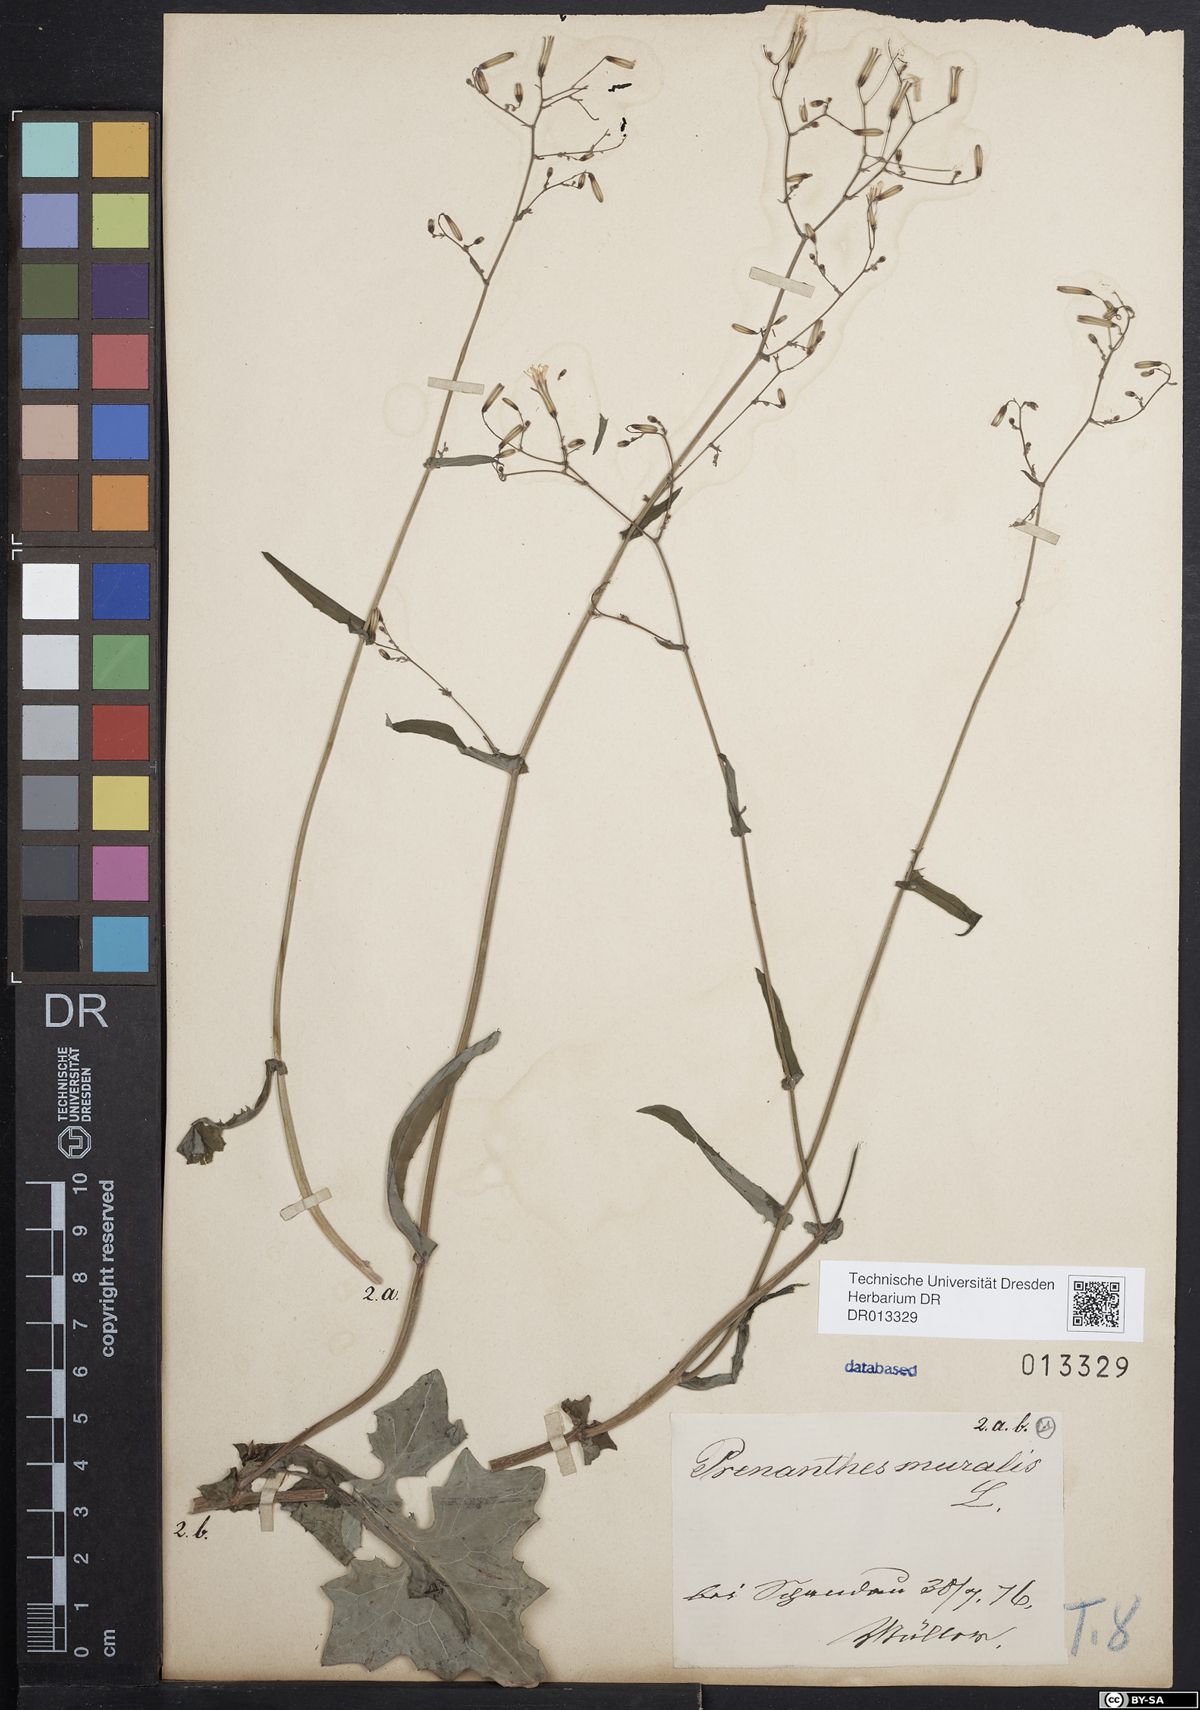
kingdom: Plantae
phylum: Tracheophyta
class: Magnoliopsida
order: Asterales
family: Asteraceae
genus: Mycelis
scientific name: Mycelis muralis
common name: Wall lettuce
